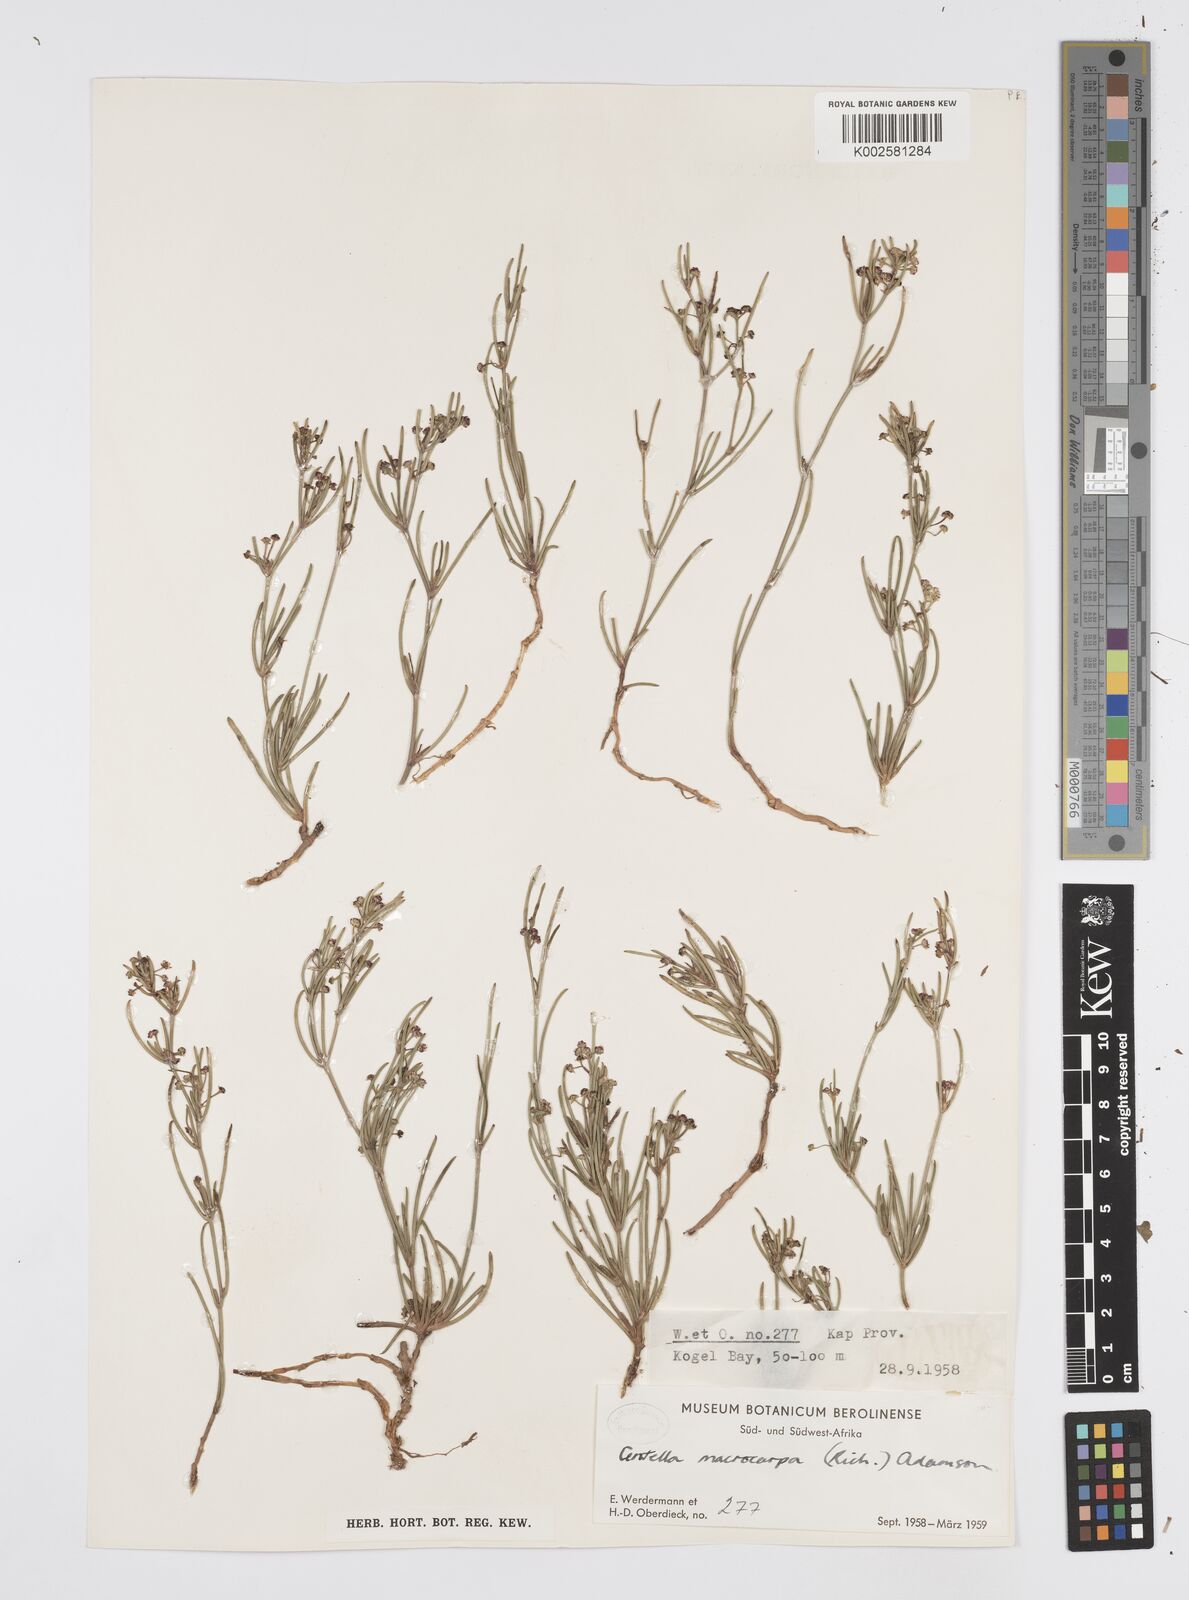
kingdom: Plantae
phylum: Tracheophyta
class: Magnoliopsida
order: Apiales
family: Apiaceae
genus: Centella
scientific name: Centella macrocarpa
